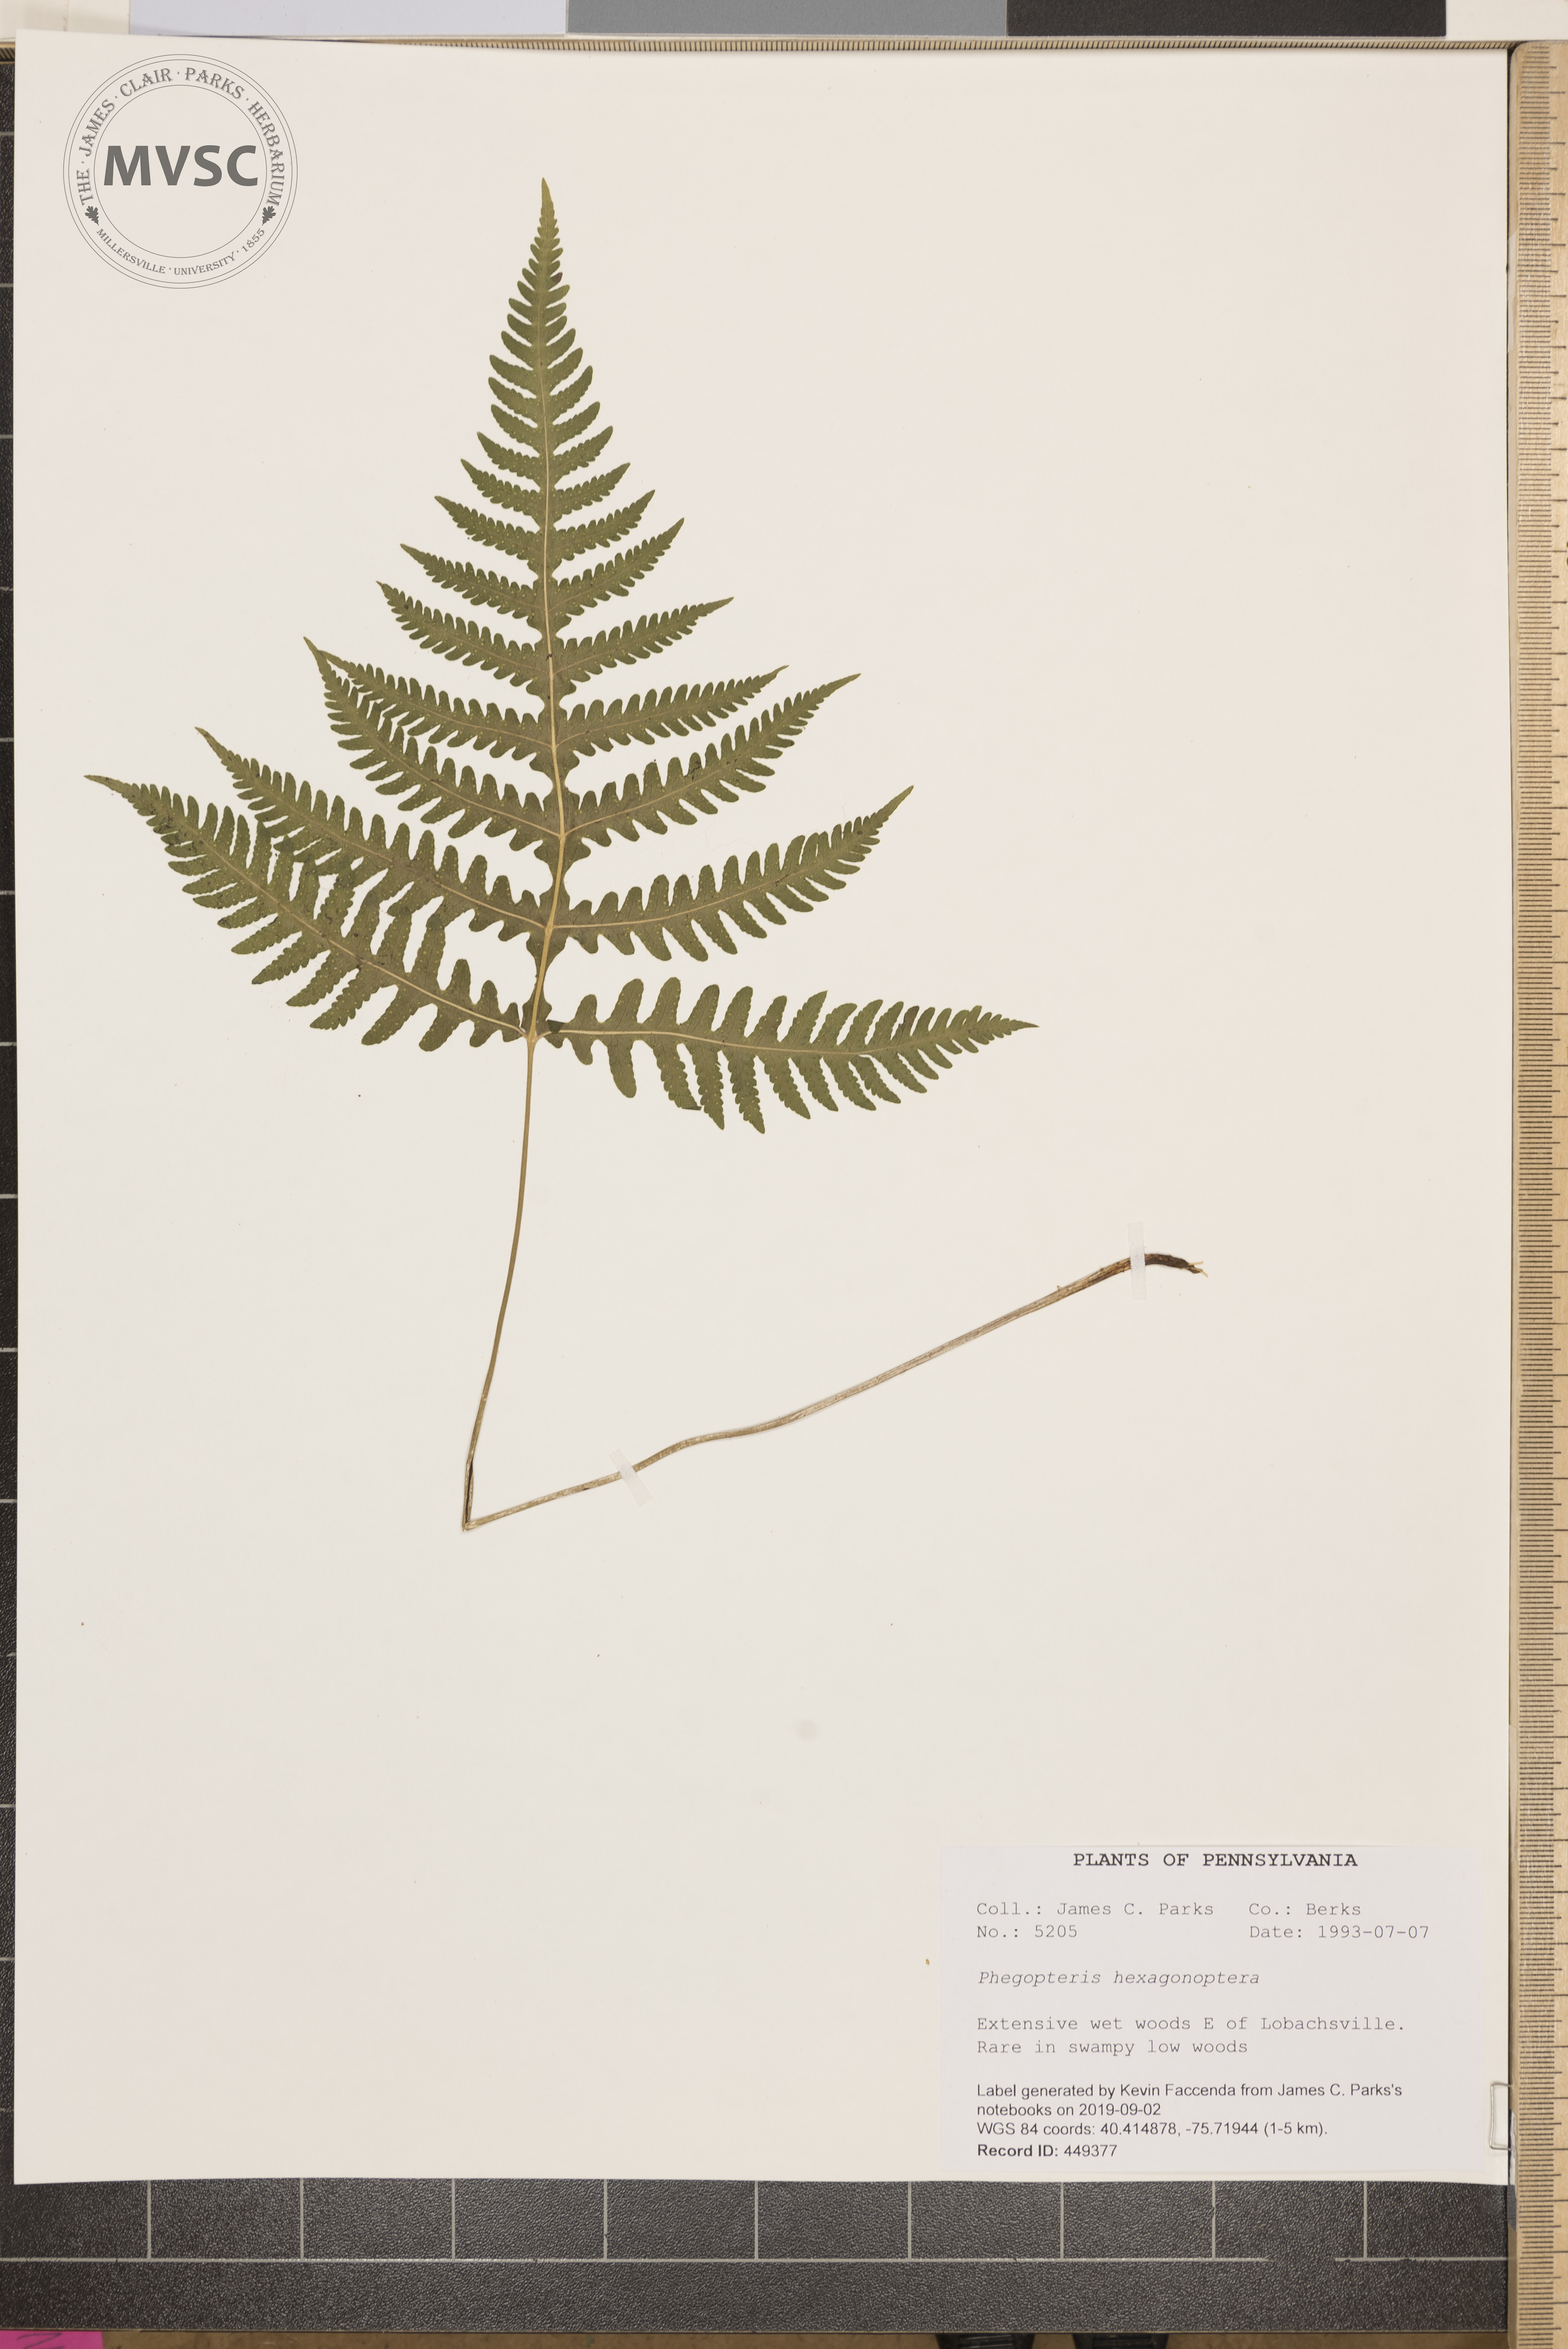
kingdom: Plantae
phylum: Tracheophyta
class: Polypodiopsida
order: Polypodiales
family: Thelypteridaceae
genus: Phegopteris
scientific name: Phegopteris hexagonoptera
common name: Broad beech fern
